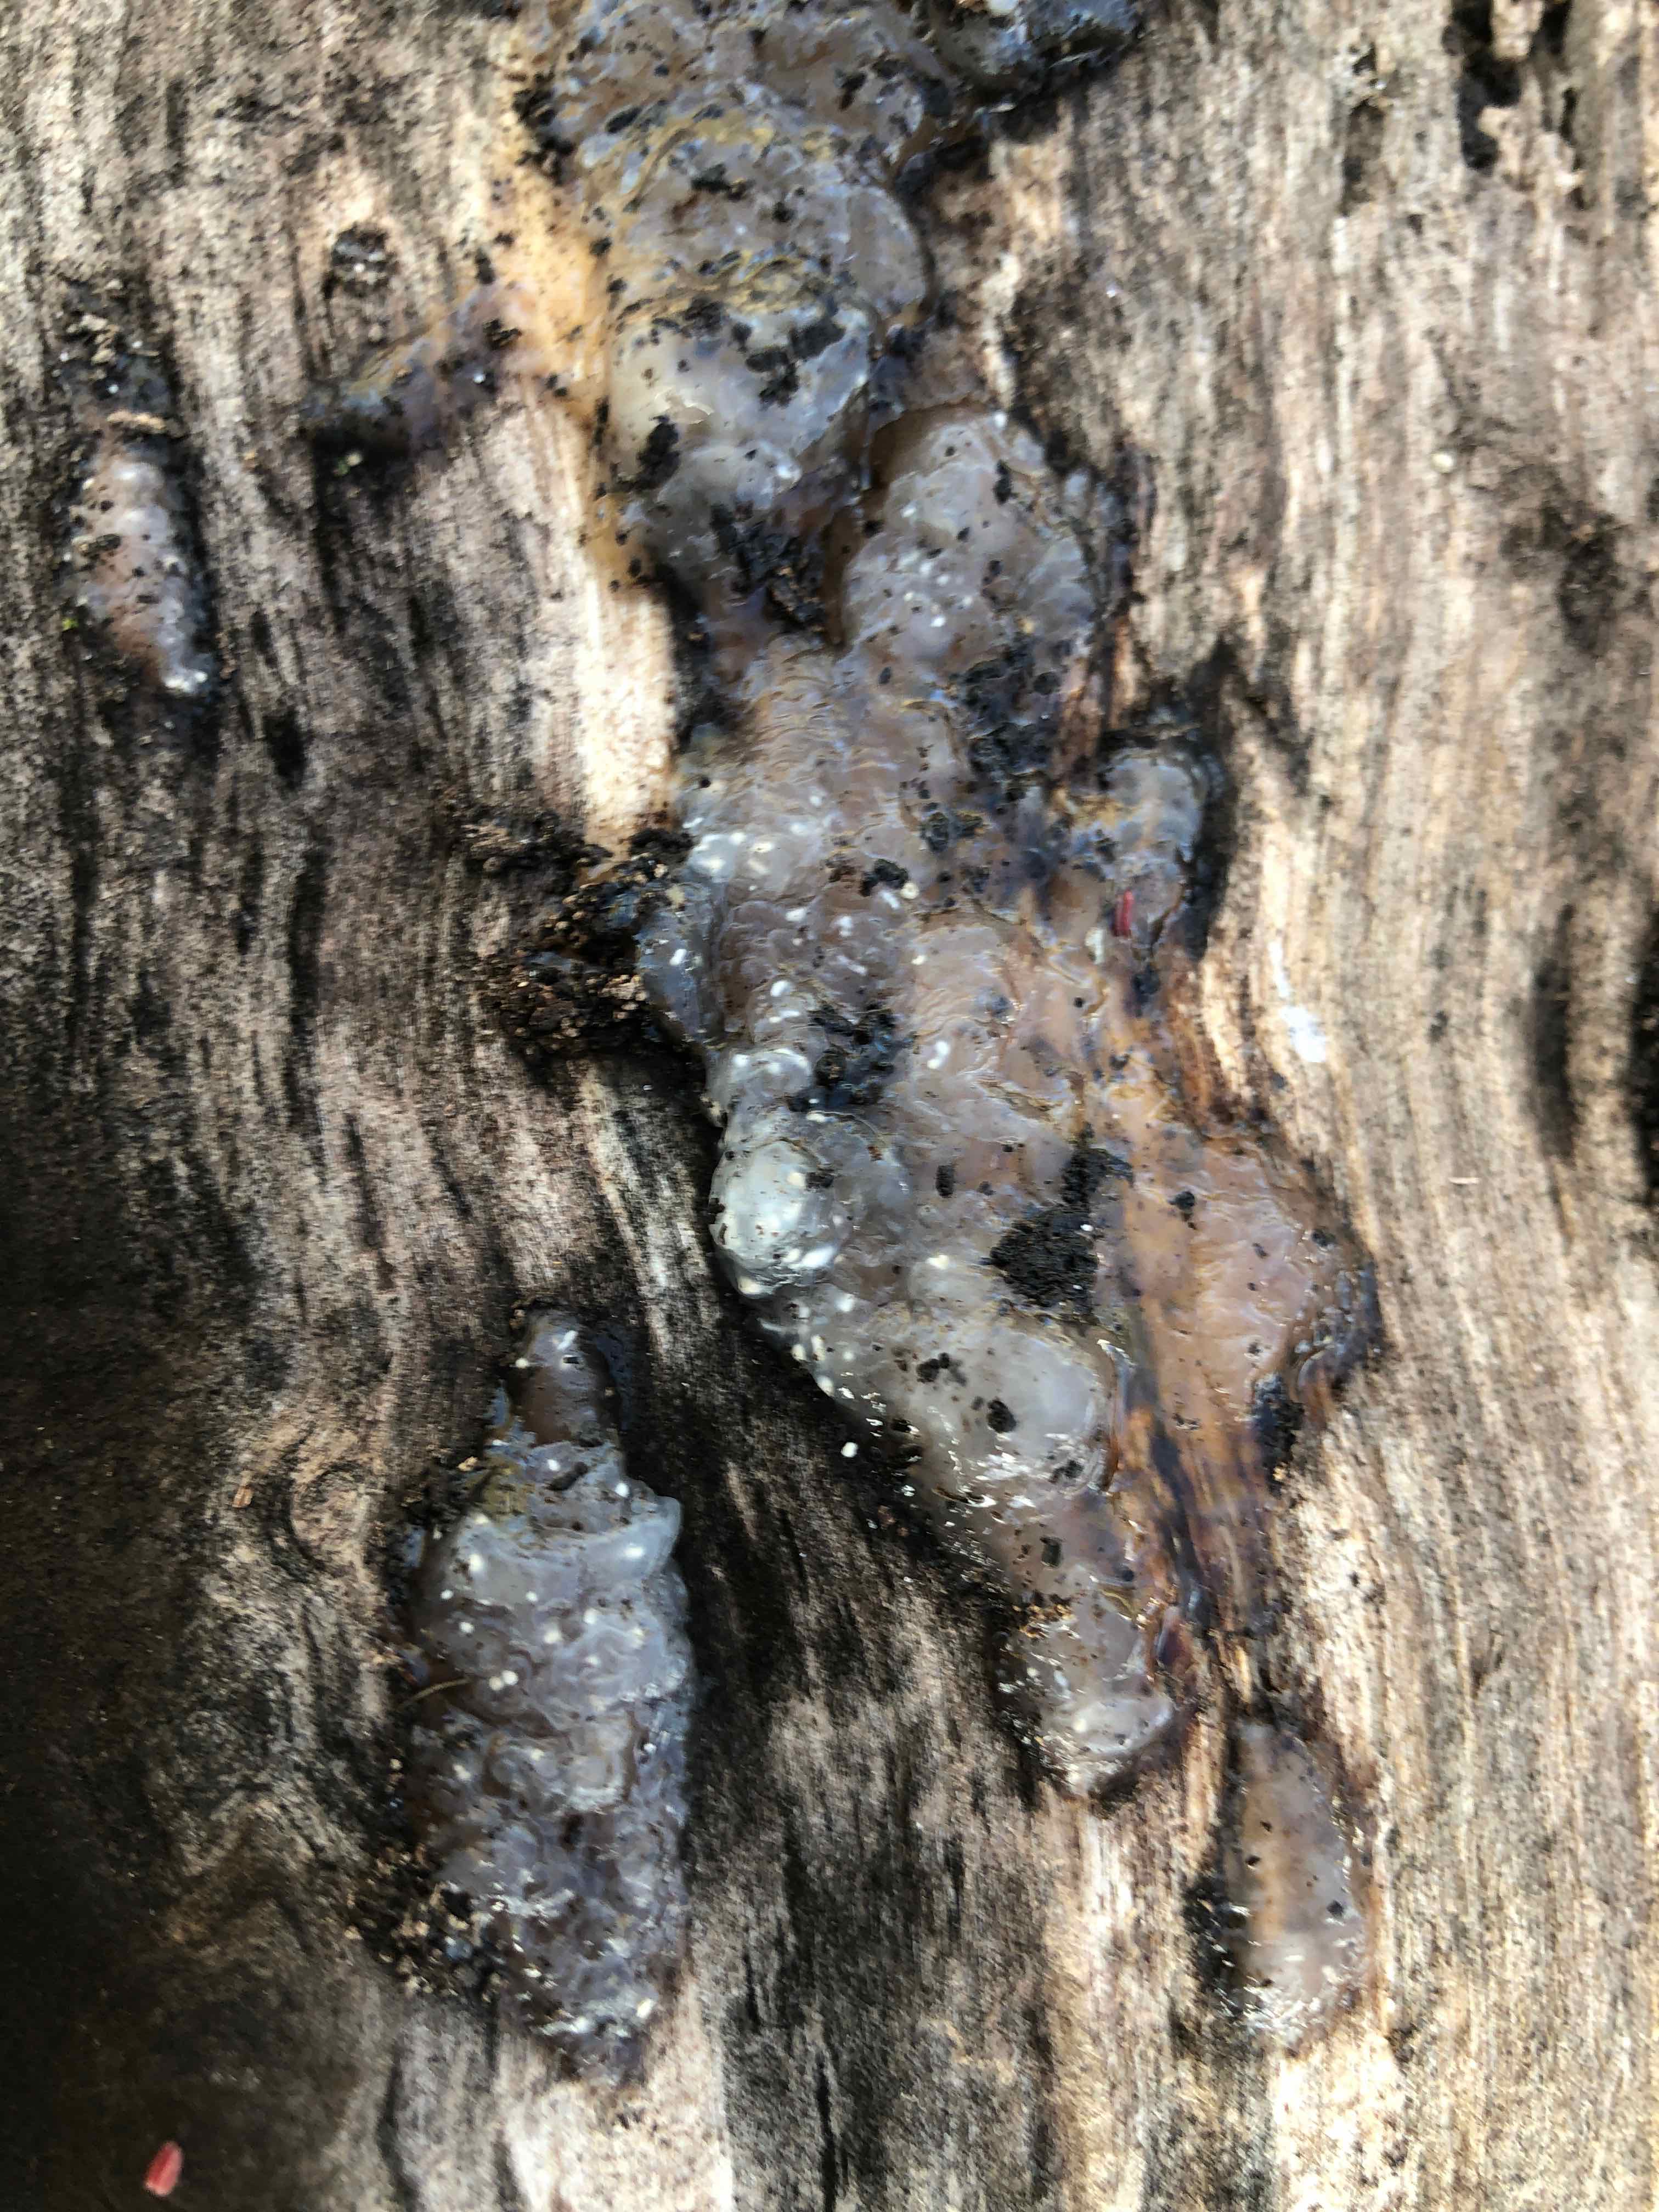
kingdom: Fungi
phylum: Basidiomycota
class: Agaricomycetes
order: Auriculariales
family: Hyaloriaceae
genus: Myxarium
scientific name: Myxarium nucleatum
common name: klar bævretop
